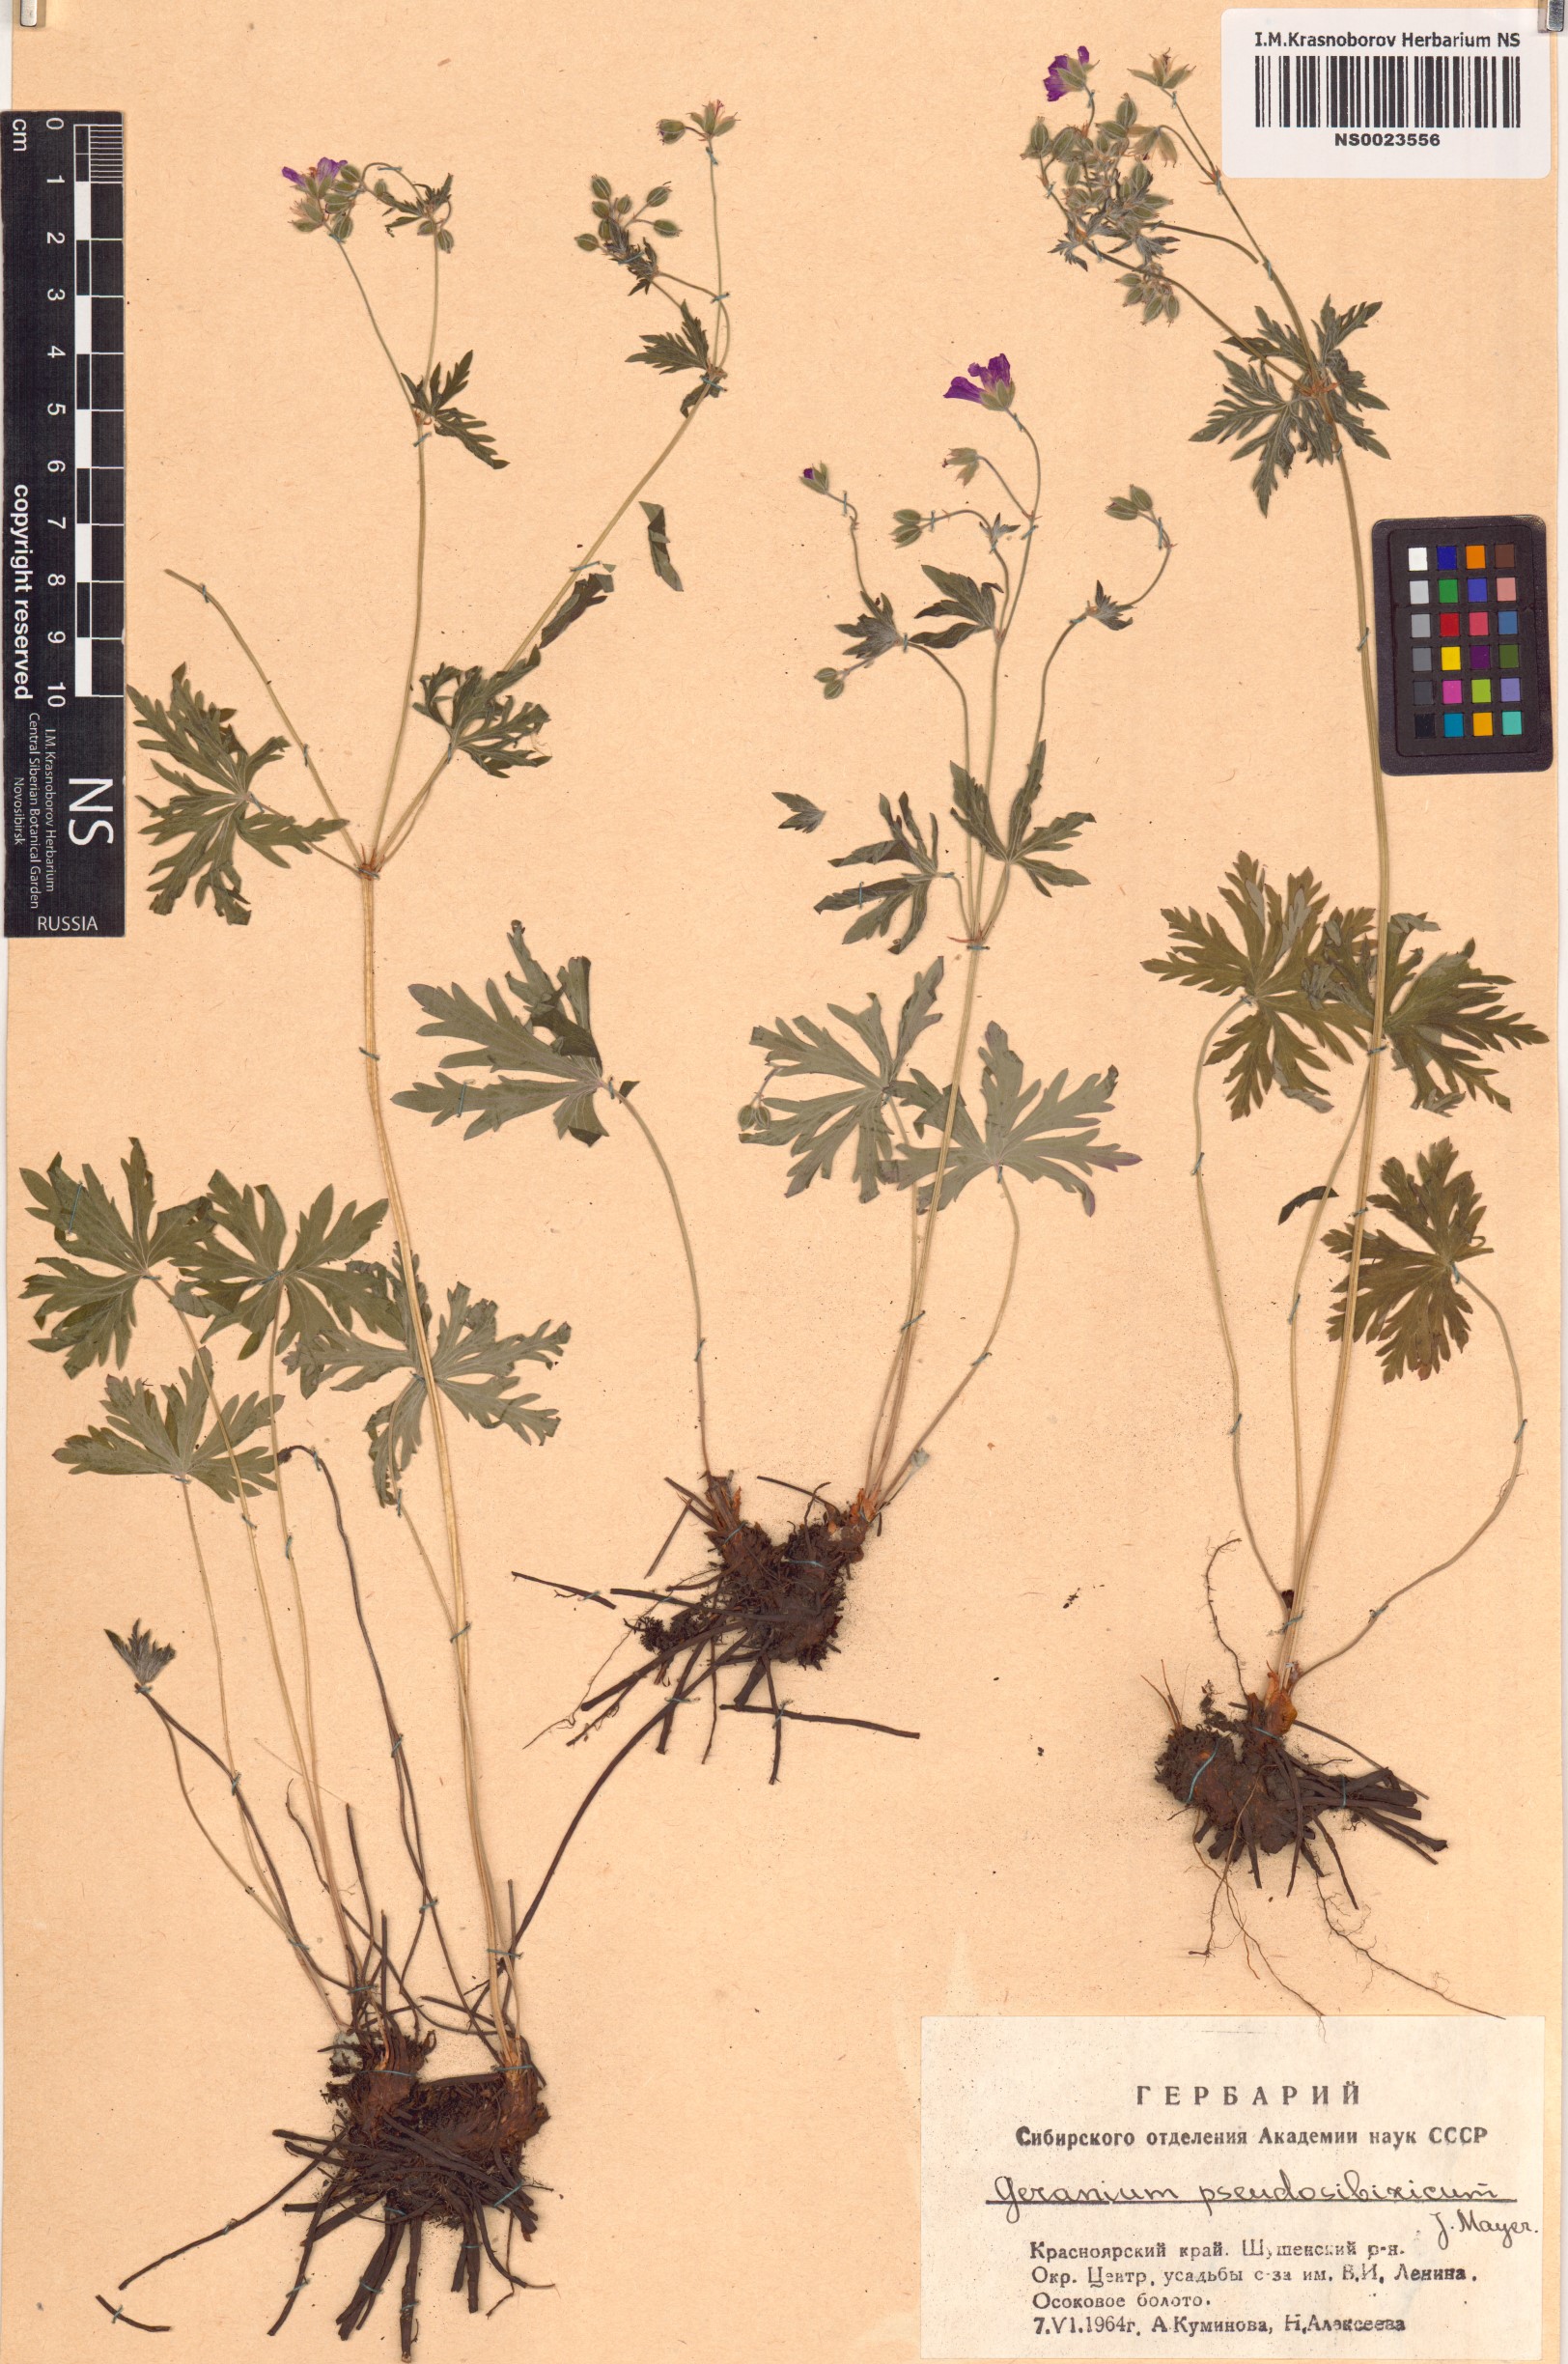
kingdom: Plantae
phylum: Tracheophyta
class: Magnoliopsida
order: Geraniales
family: Geraniaceae
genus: Geranium
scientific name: Geranium pseudosibiricum
